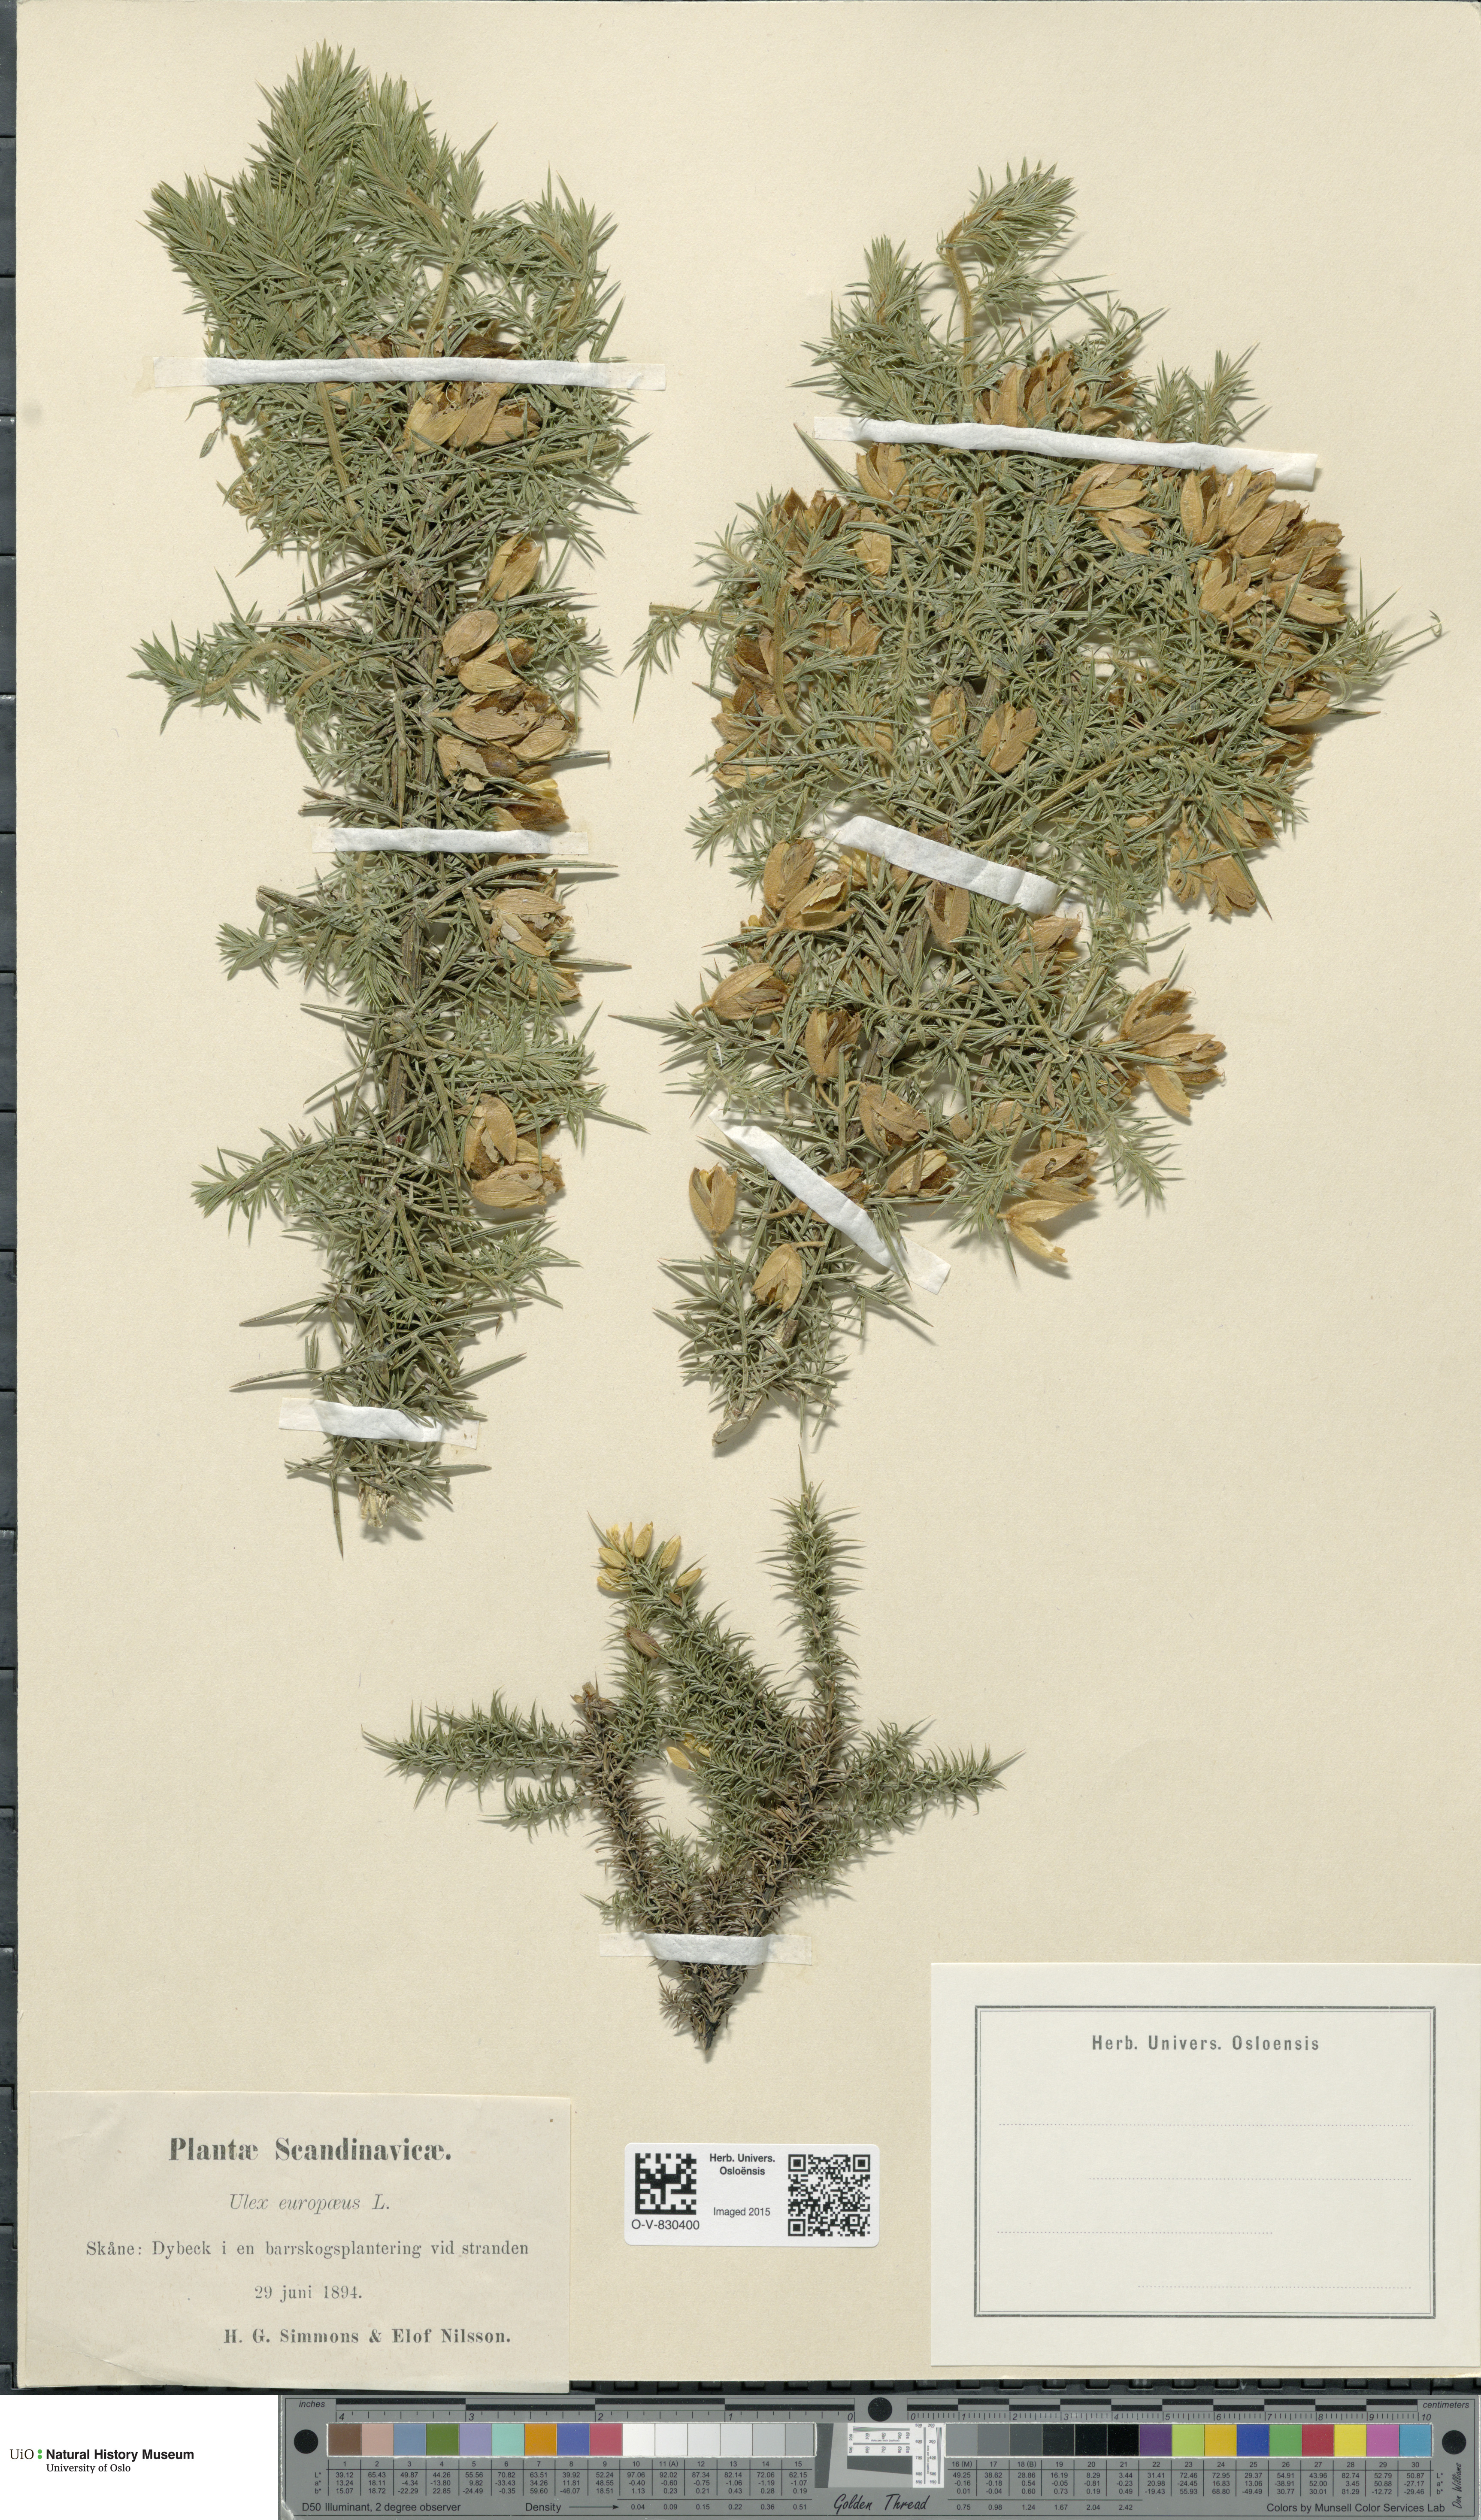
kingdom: Plantae
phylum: Tracheophyta
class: Magnoliopsida
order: Fabales
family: Fabaceae
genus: Ulex
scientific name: Ulex europaeus
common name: Common gorse
